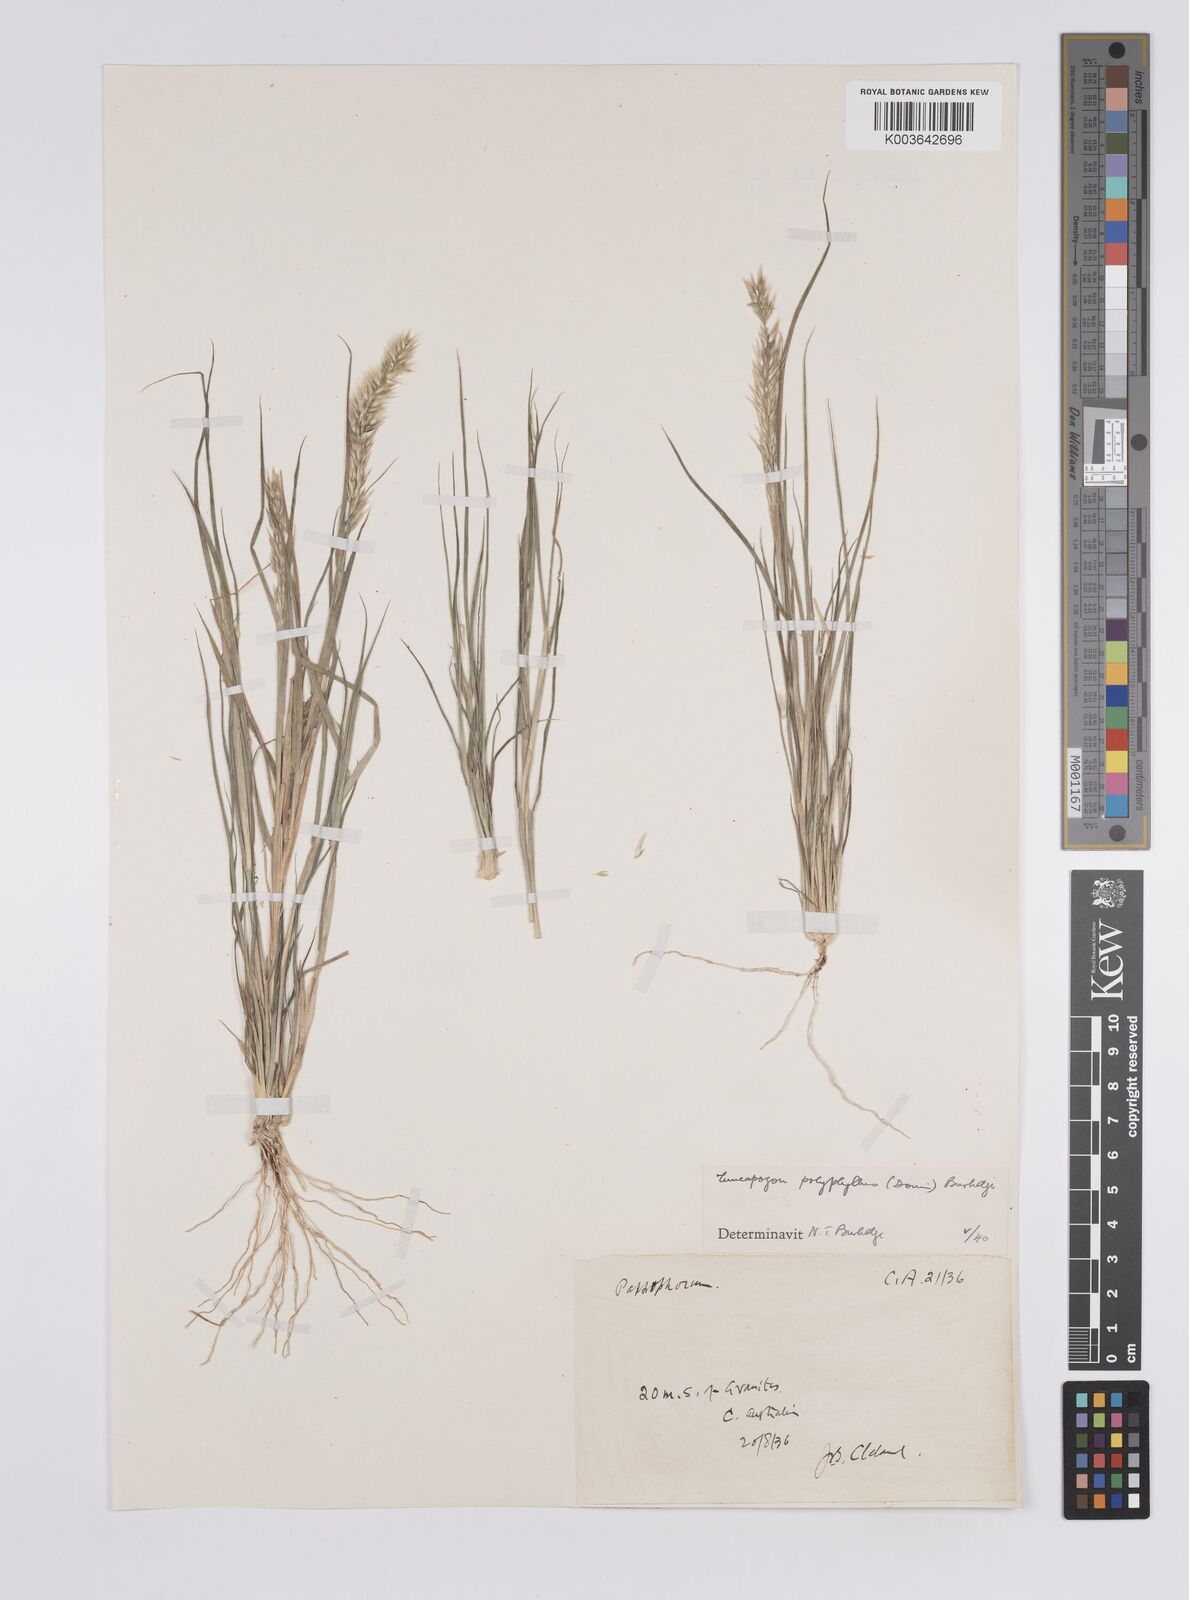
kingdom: Plantae
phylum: Tracheophyta
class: Liliopsida
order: Poales
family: Poaceae
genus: Enneapogon
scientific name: Enneapogon polyphyllus
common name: Leafy nineawn
